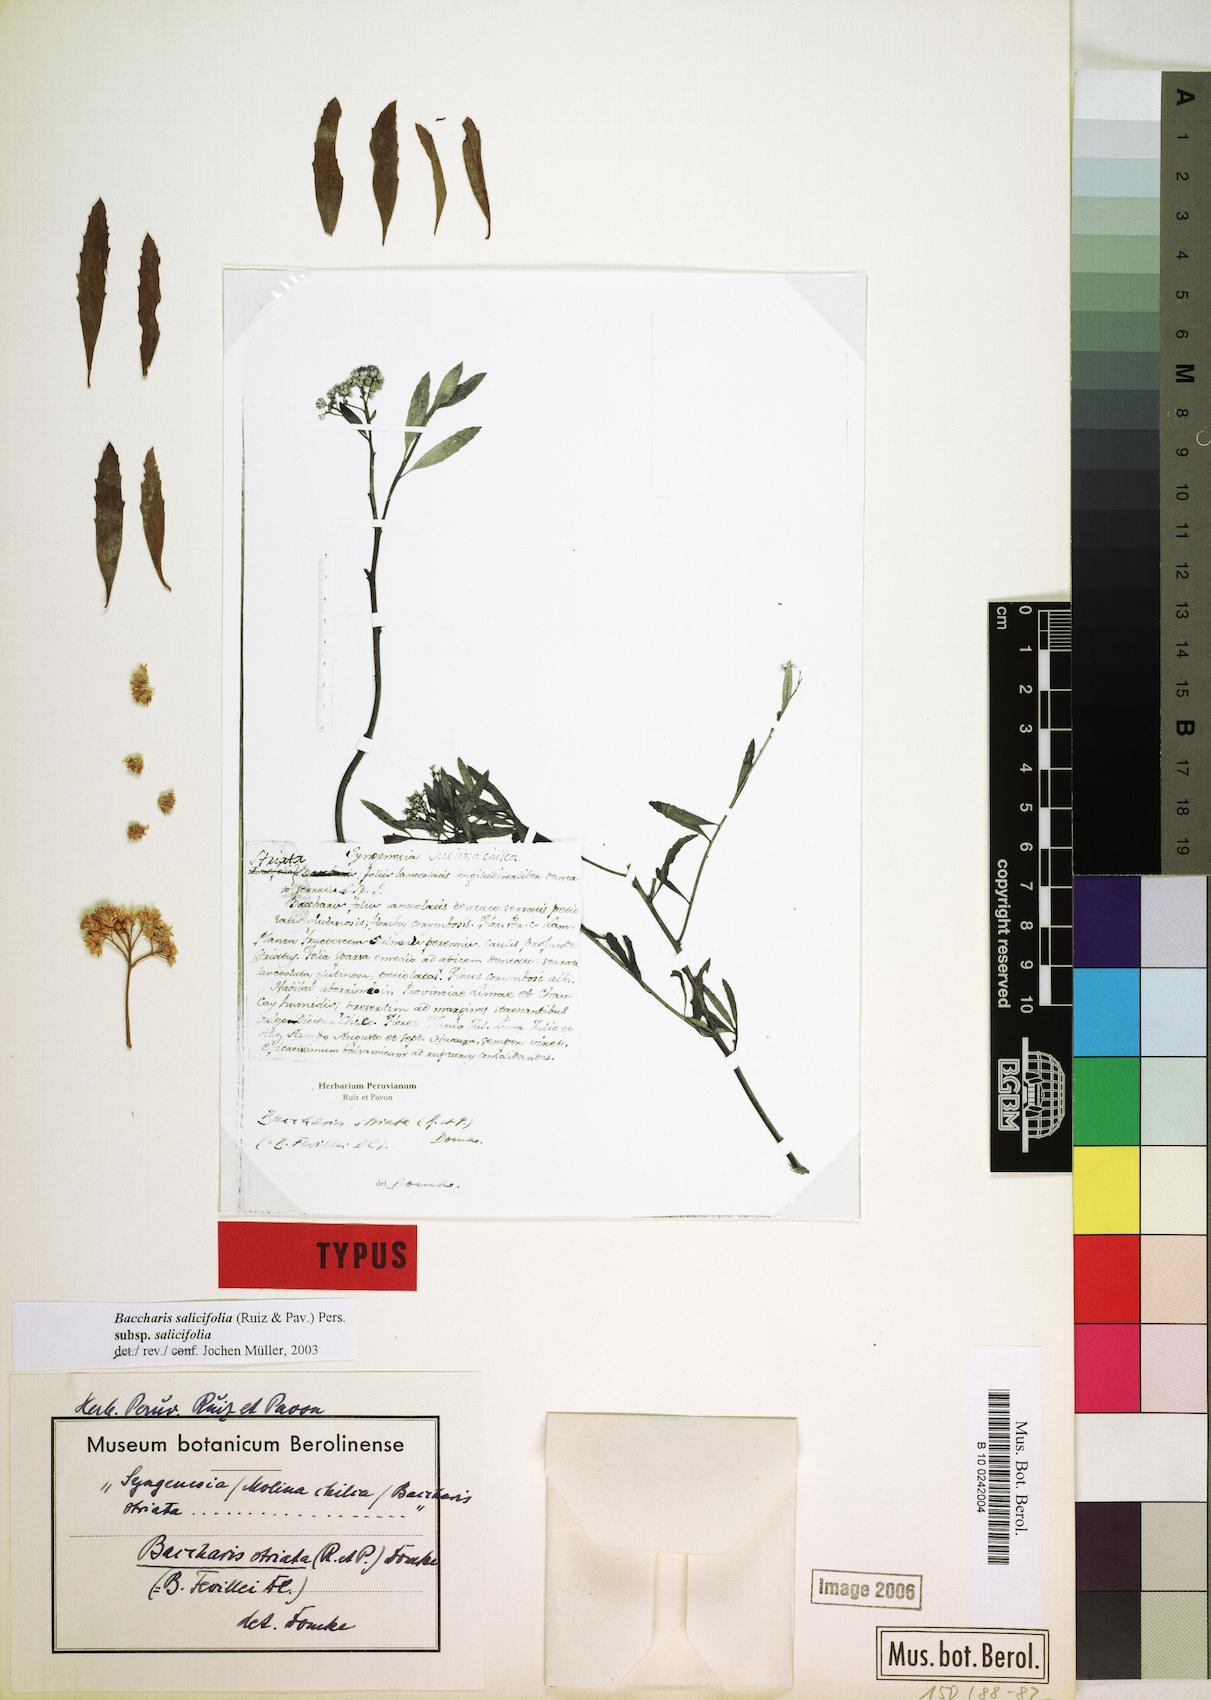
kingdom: Plantae
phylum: Tracheophyta
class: Magnoliopsida
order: Asterales
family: Asteraceae
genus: Baccharis
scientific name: Baccharis salicifolia
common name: Sticky baccharis
